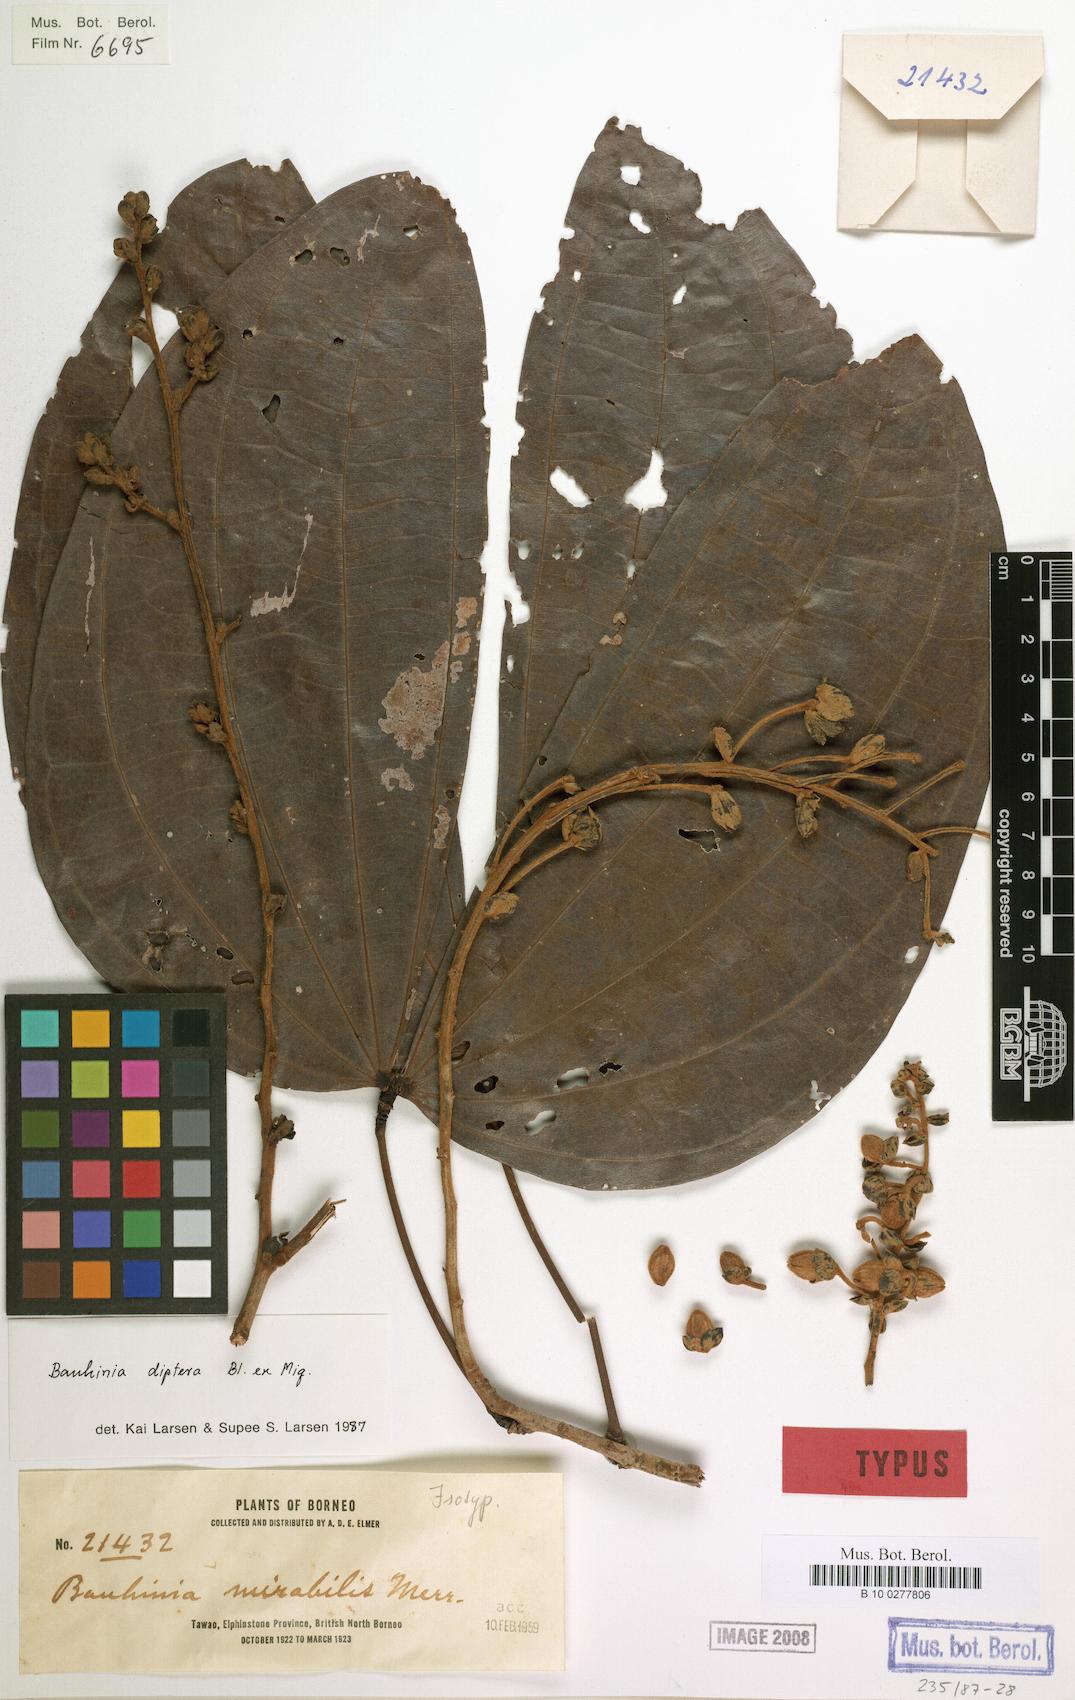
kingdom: Plantae
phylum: Tracheophyta
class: Magnoliopsida
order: Fabales
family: Fabaceae
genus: Bauhinia
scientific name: Bauhinia diptera
